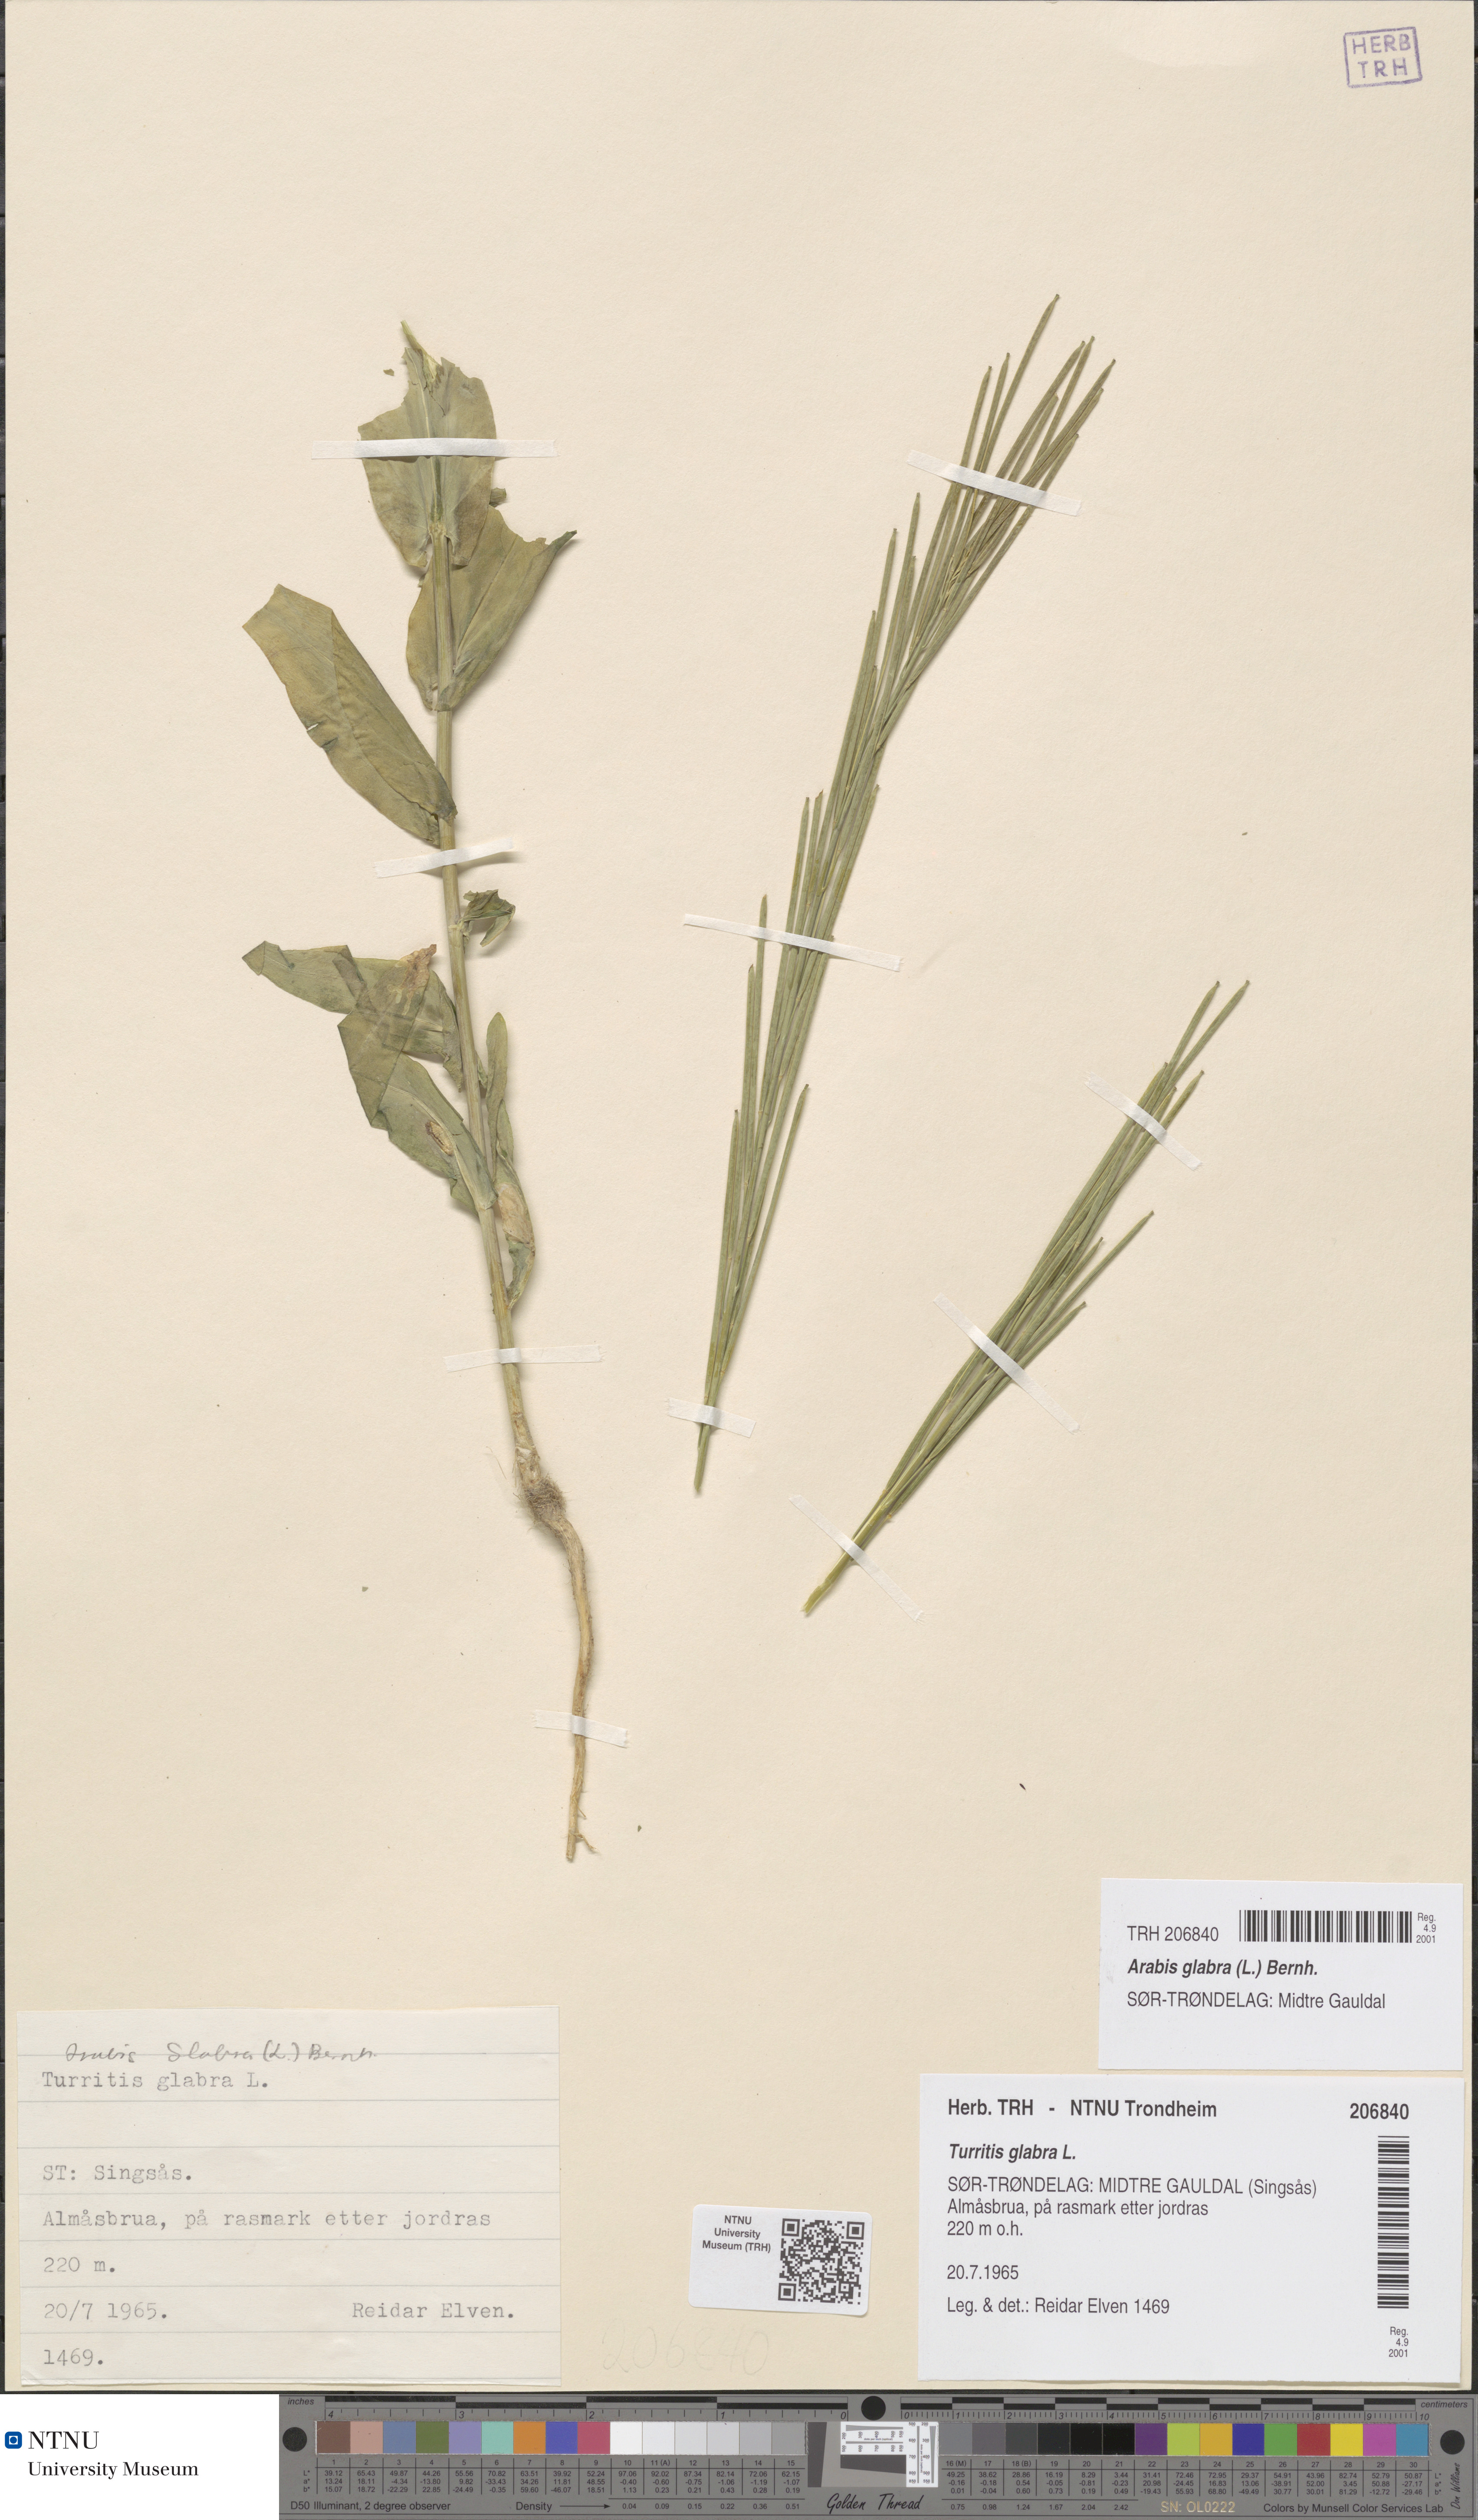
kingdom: Plantae
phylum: Tracheophyta
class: Magnoliopsida
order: Brassicales
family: Brassicaceae
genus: Turritis
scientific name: Turritis glabra
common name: Tower rockcress
